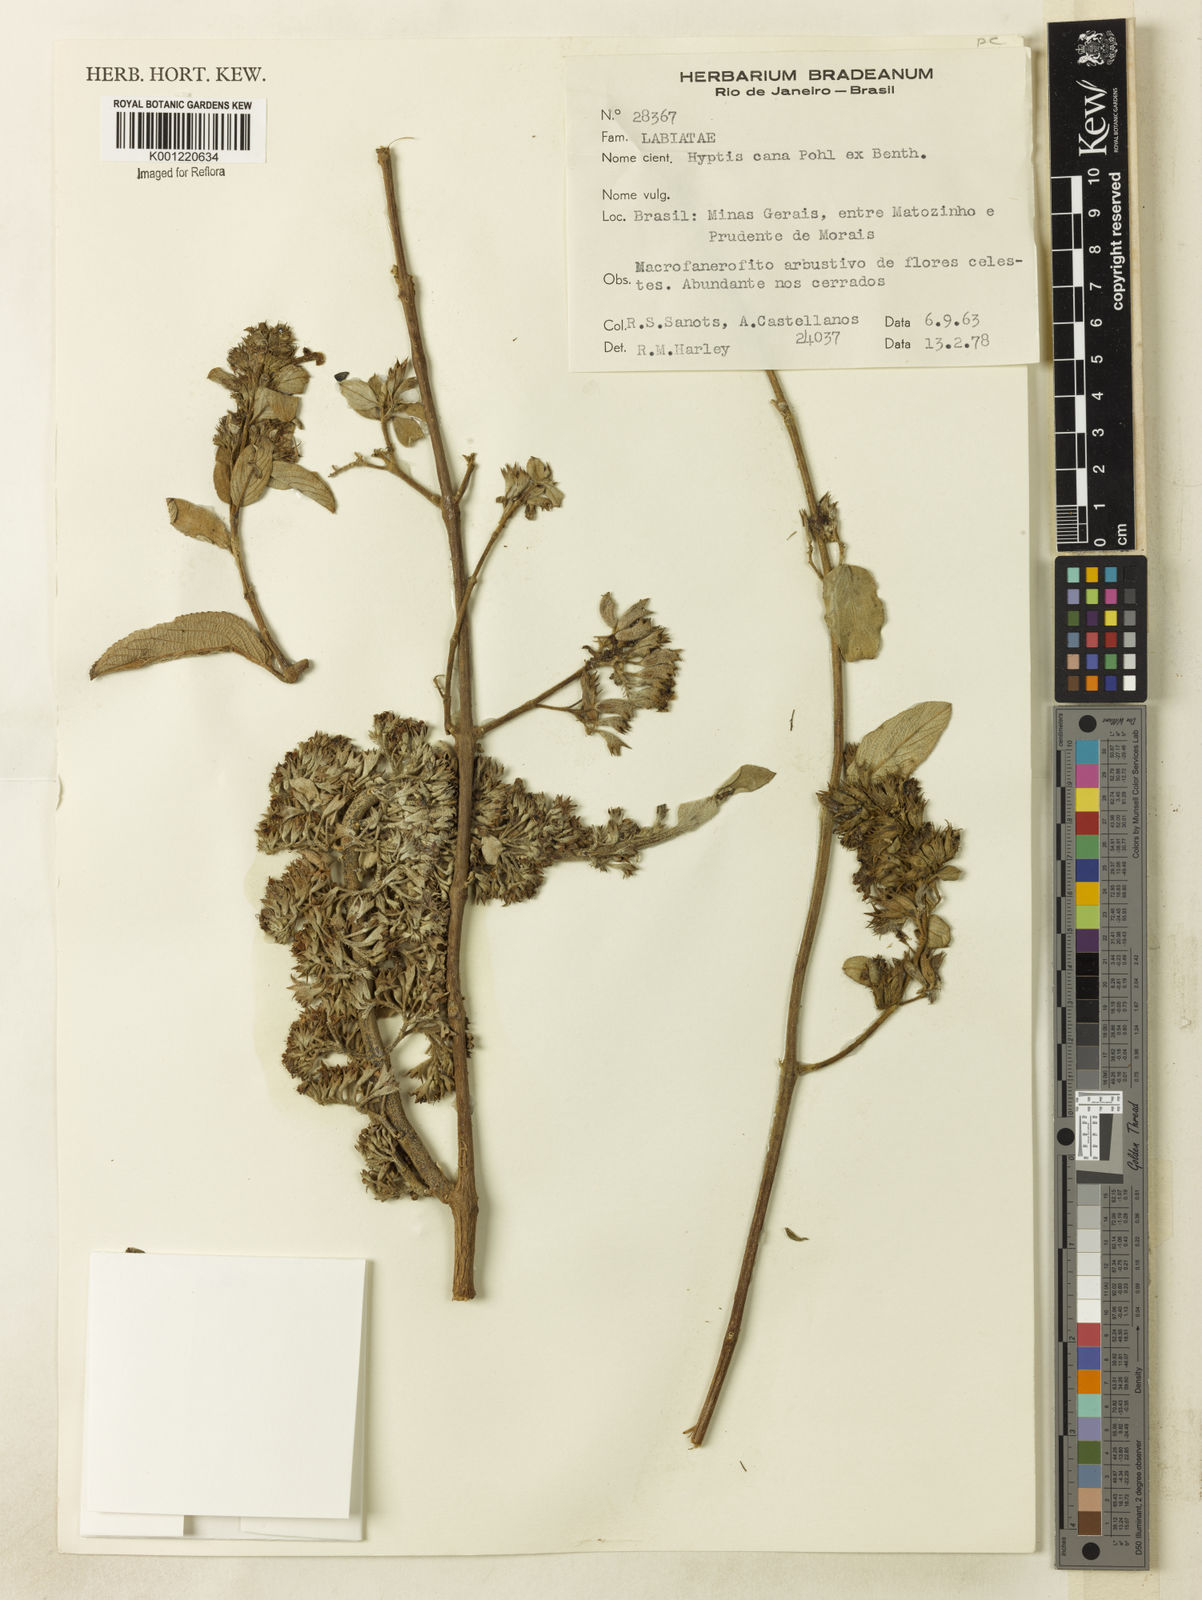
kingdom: Plantae
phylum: Tracheophyta
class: Magnoliopsida
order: Lamiales
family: Lamiaceae
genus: Hyptidendron
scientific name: Hyptidendron canum
